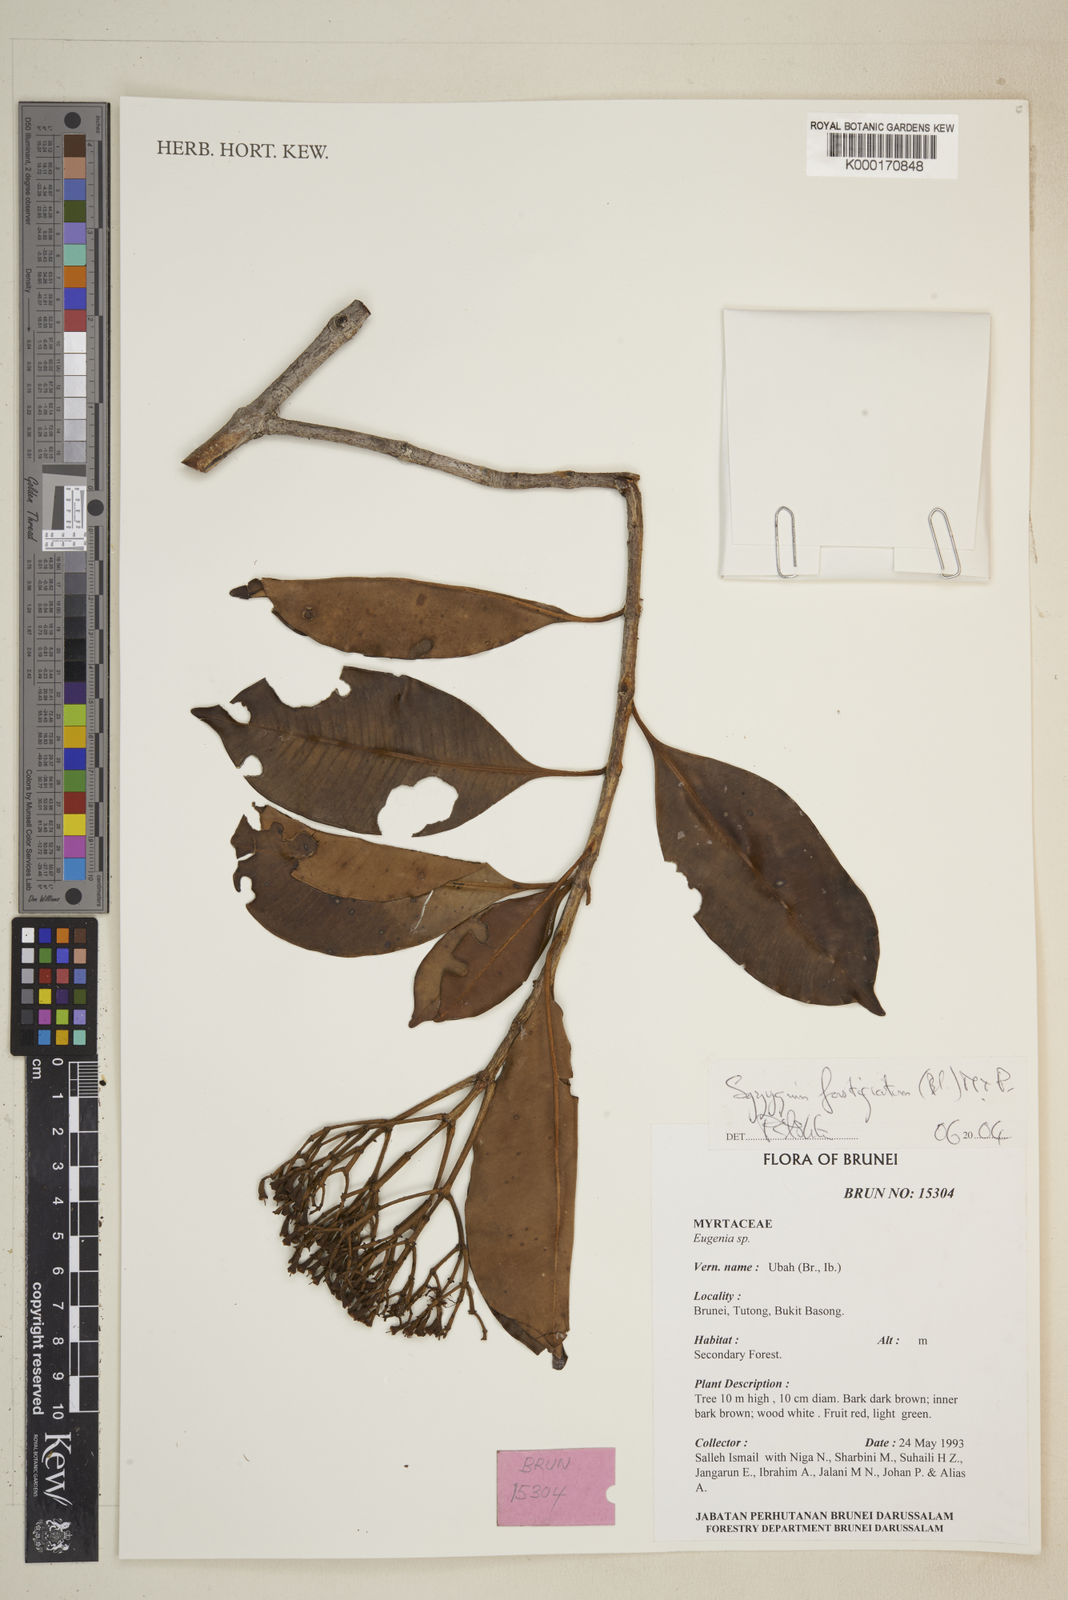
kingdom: Plantae
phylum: Tracheophyta
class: Magnoliopsida
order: Myrtales
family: Myrtaceae
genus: Syzygium
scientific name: Syzygium fastigiatum
